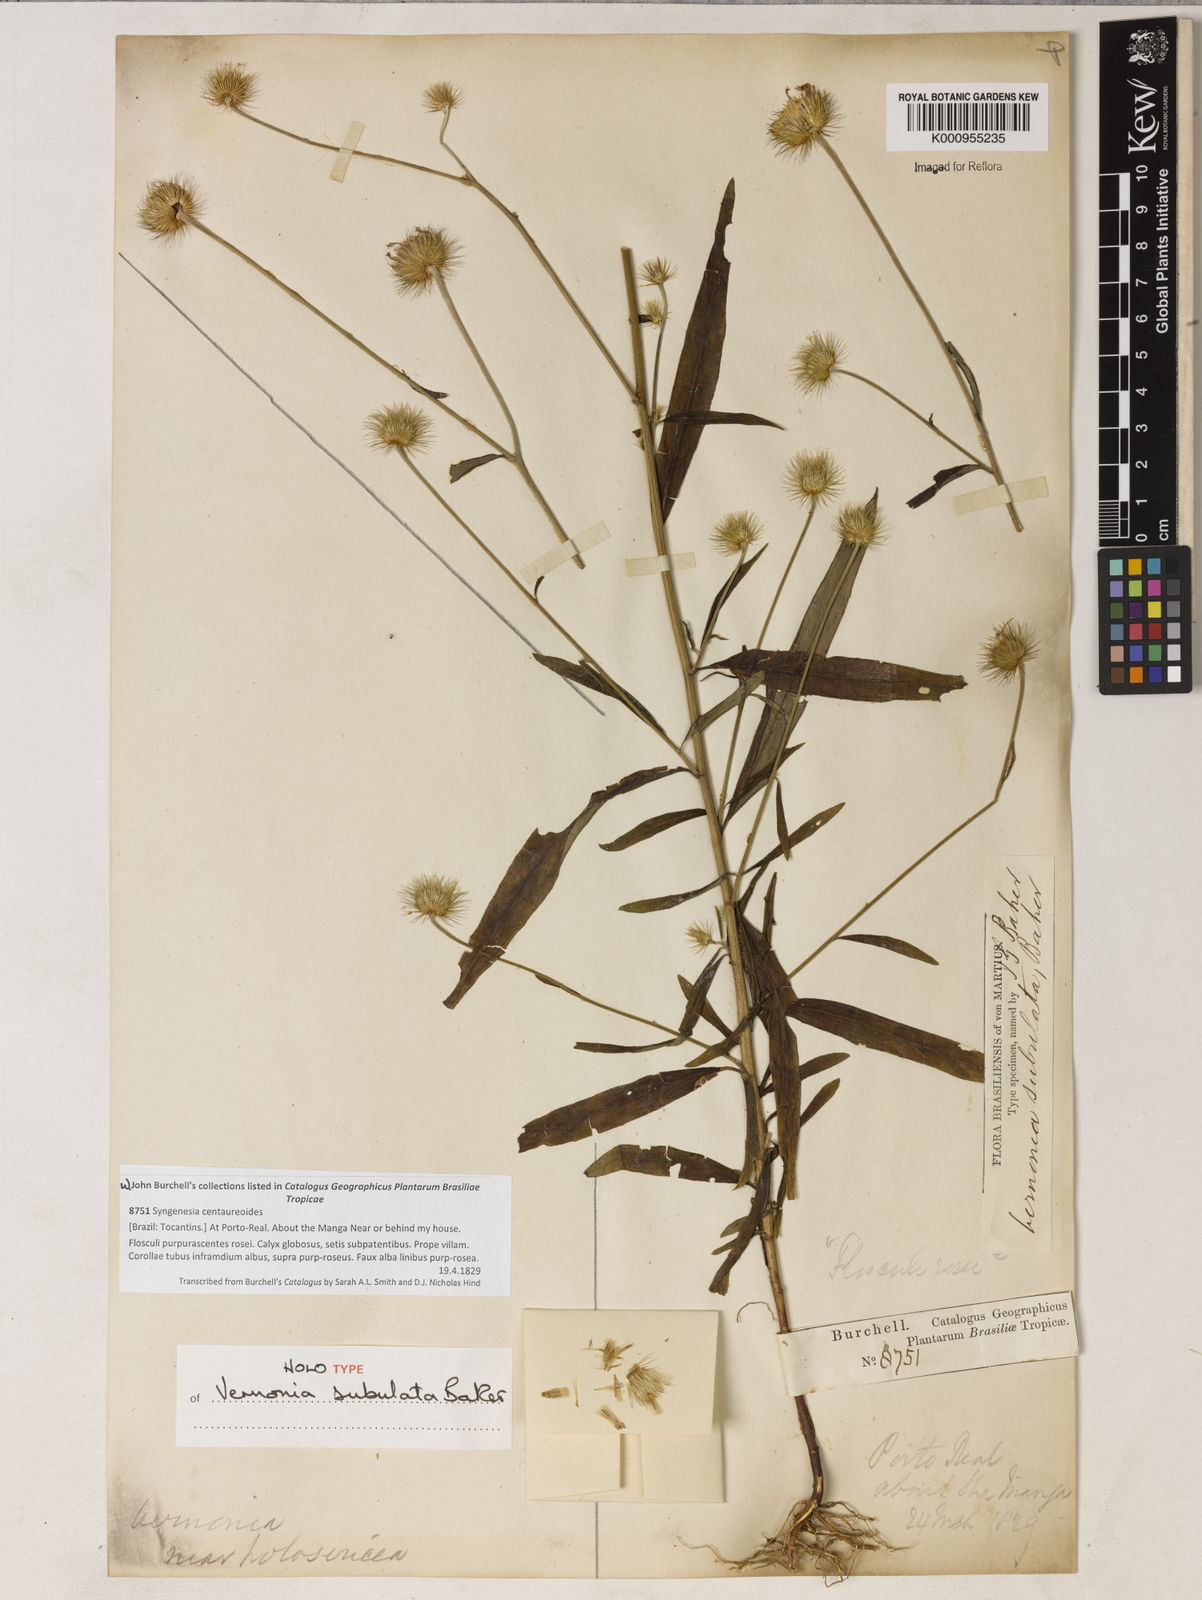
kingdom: Plantae
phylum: Tracheophyta
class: Magnoliopsida
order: Asterales
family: Asteraceae
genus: Echinocoryne
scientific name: Echinocoryne subulata
